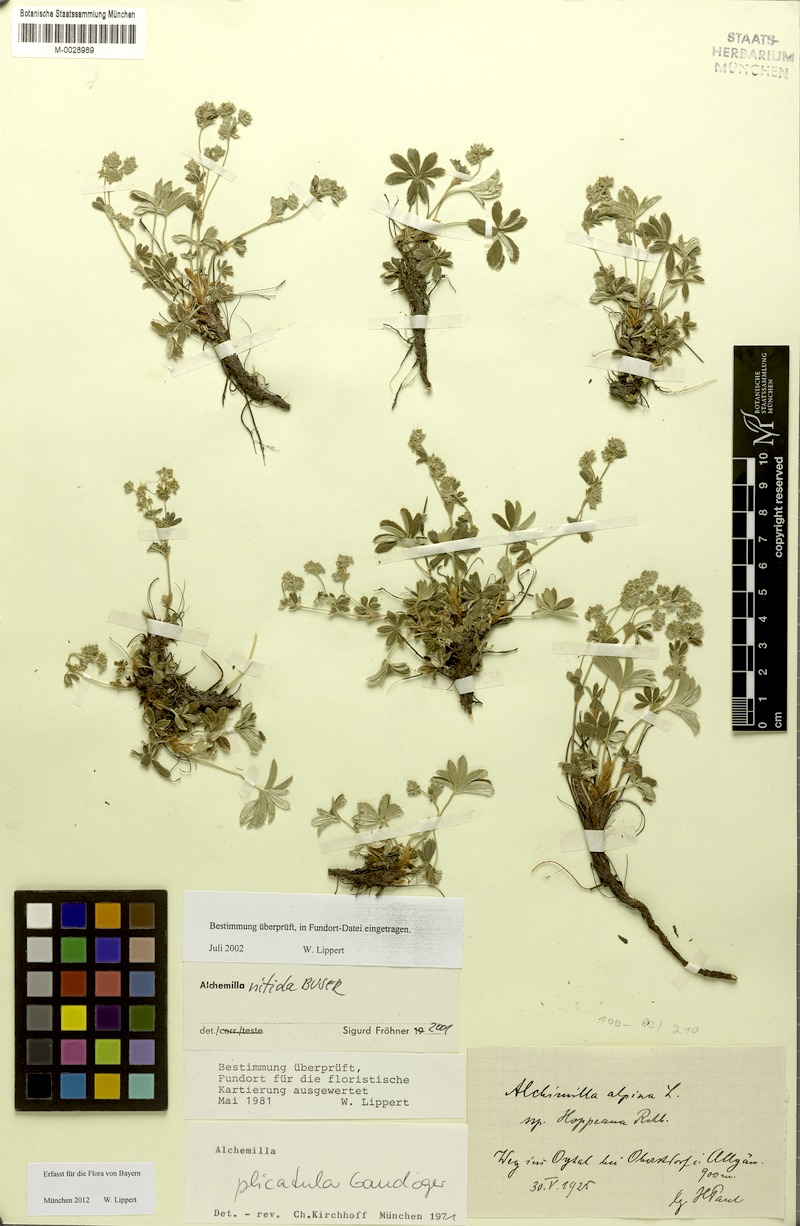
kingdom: Plantae
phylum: Tracheophyta
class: Magnoliopsida
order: Rosales
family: Rosaceae
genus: Alchemilla
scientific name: Alchemilla nitida
